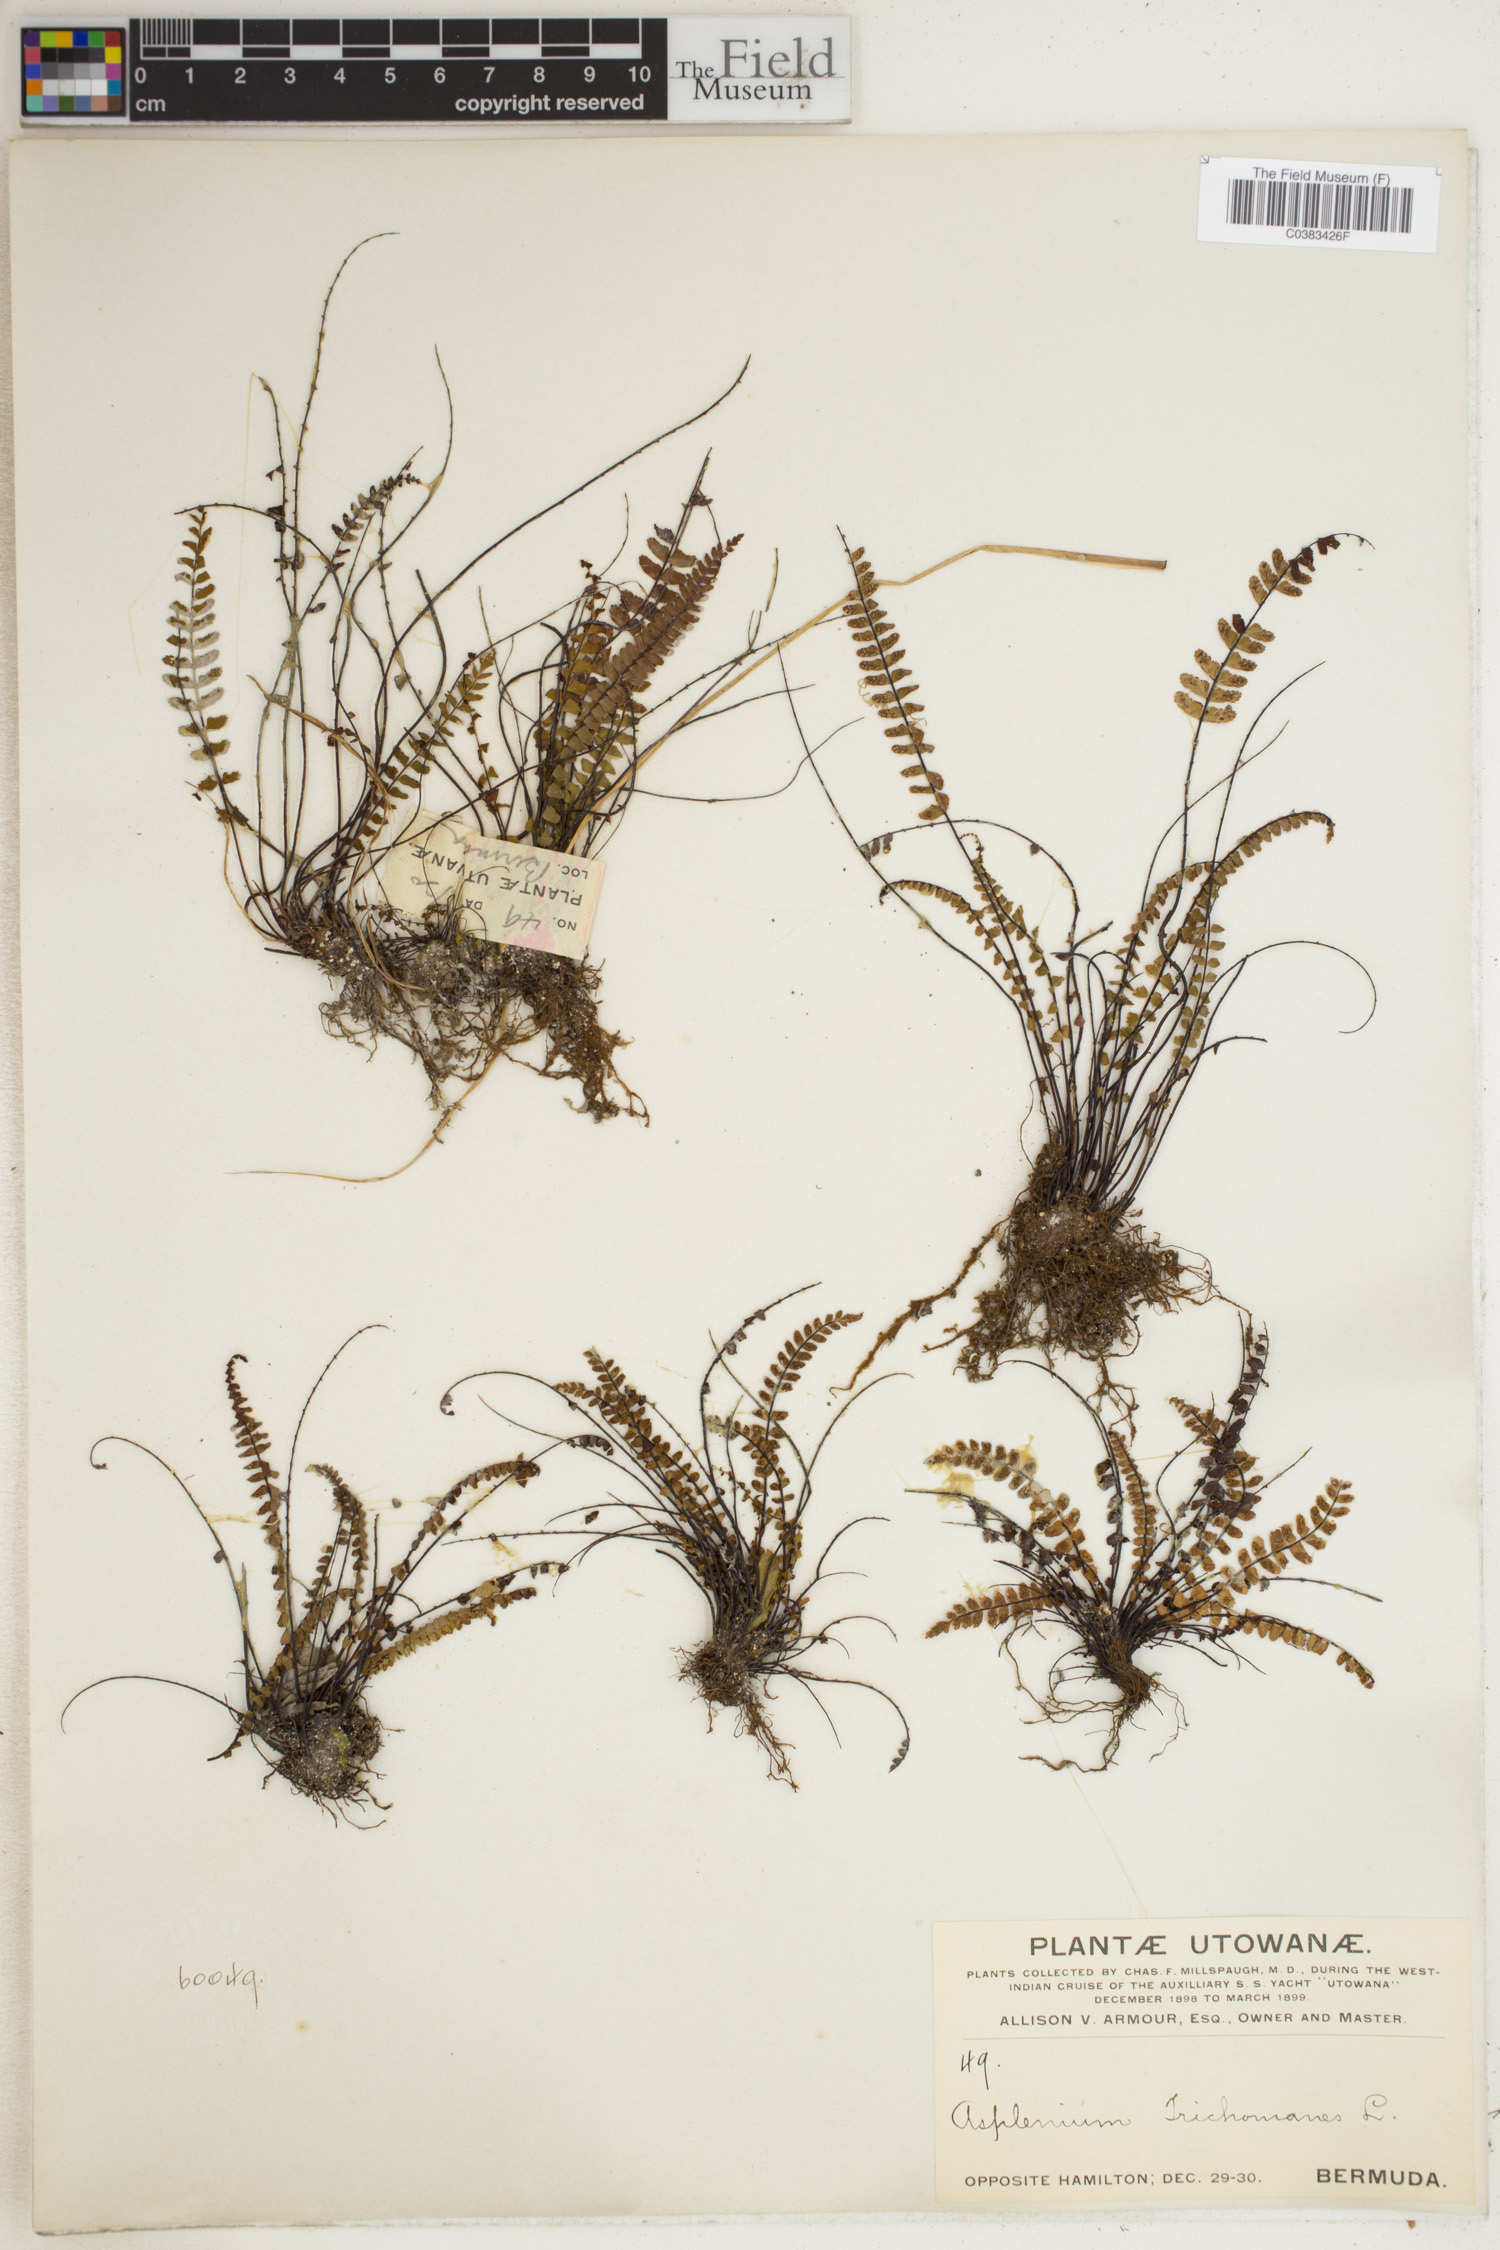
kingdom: Plantae
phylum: Tracheophyta
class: Polypodiopsida
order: Polypodiales
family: Aspleniaceae
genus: Asplenium
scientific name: Asplenium trichomanes
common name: Maidenhair spleenwort
